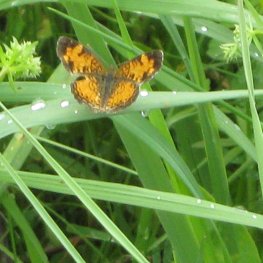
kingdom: Animalia
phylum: Arthropoda
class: Insecta
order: Lepidoptera
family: Nymphalidae
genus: Phyciodes
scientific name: Phyciodes tharos
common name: Pearl Crescent
